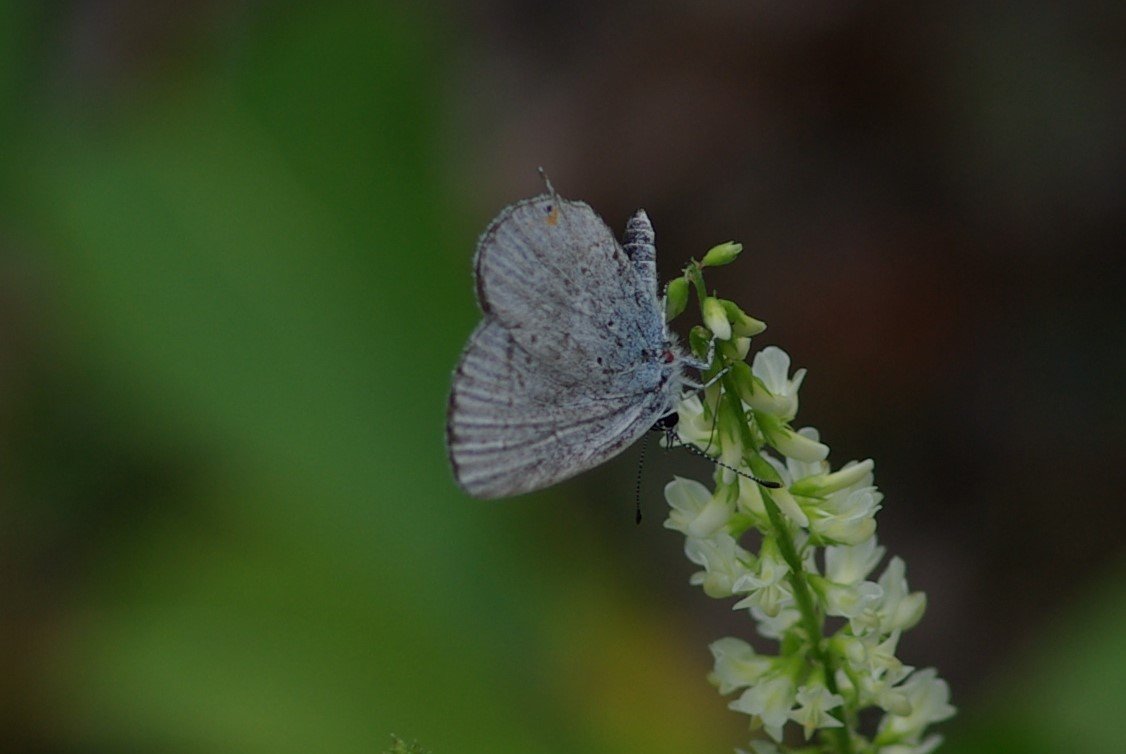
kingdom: Animalia
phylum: Arthropoda
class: Insecta
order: Lepidoptera
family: Lycaenidae
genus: Elkalyce
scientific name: Elkalyce amyntula
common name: Western Tailed-Blue
